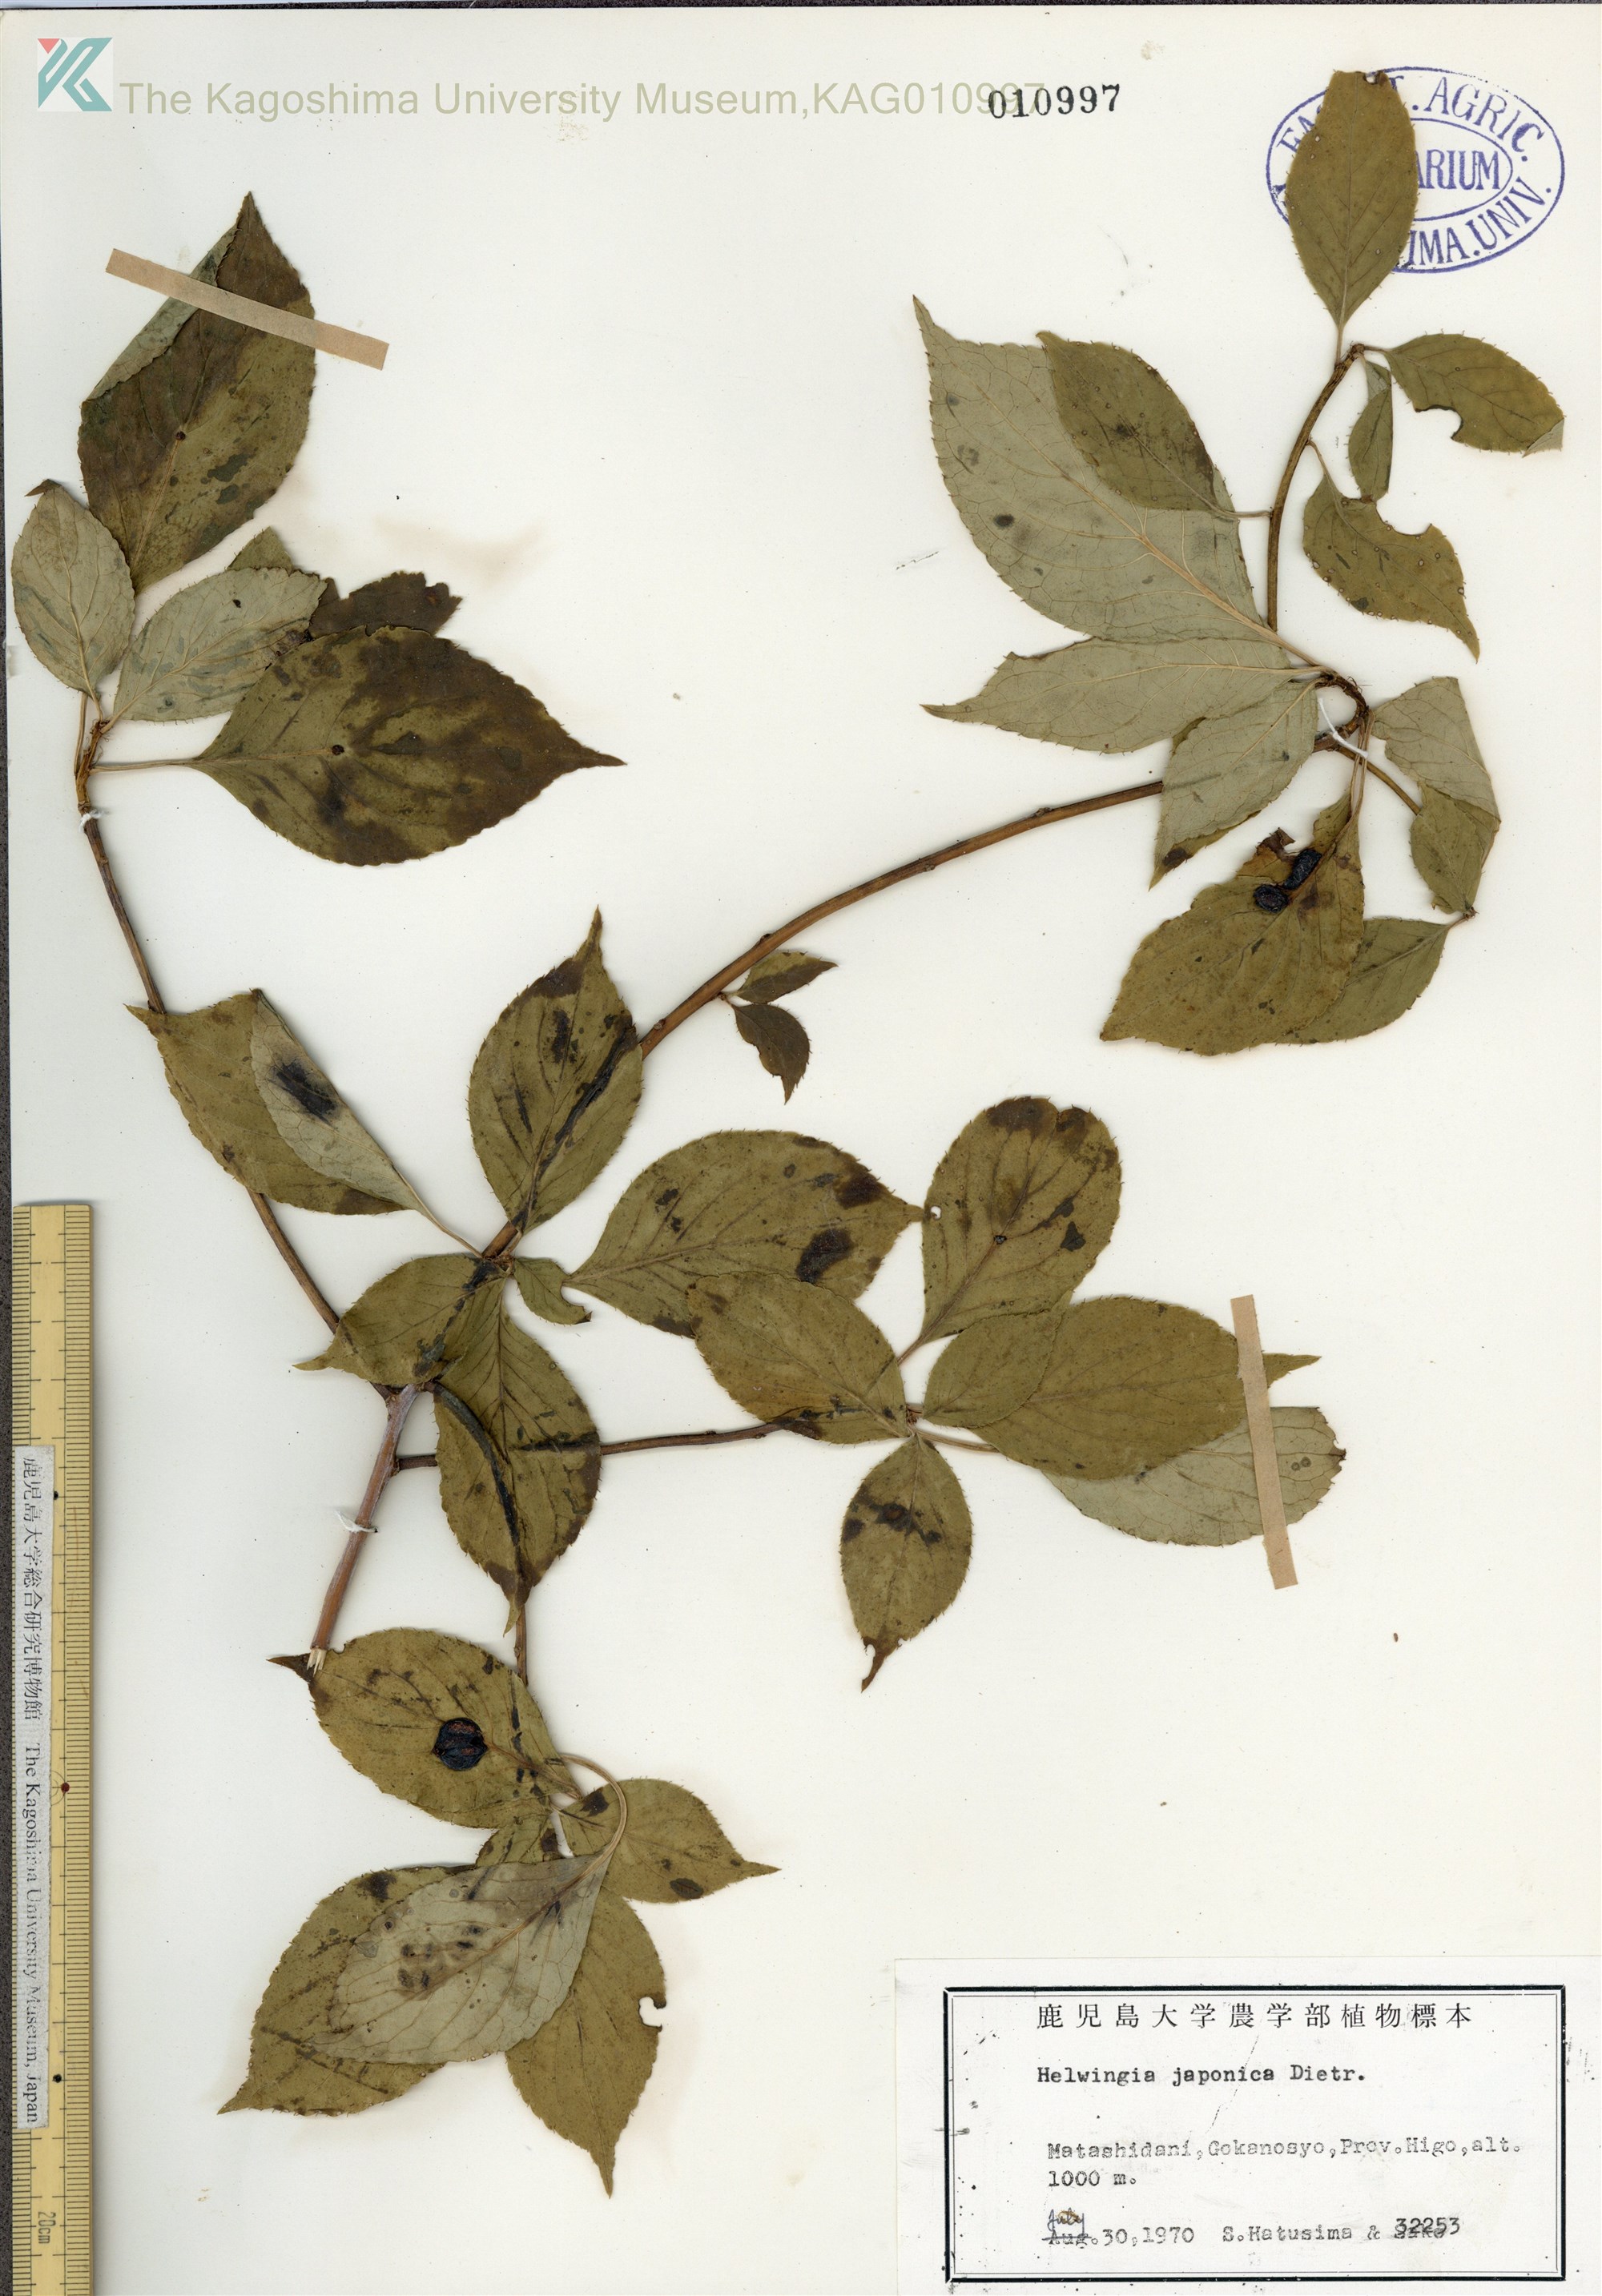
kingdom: Plantae
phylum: Tracheophyta
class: Magnoliopsida
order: Aquifoliales
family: Helwingiaceae
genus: Helwingia
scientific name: Helwingia japonica
